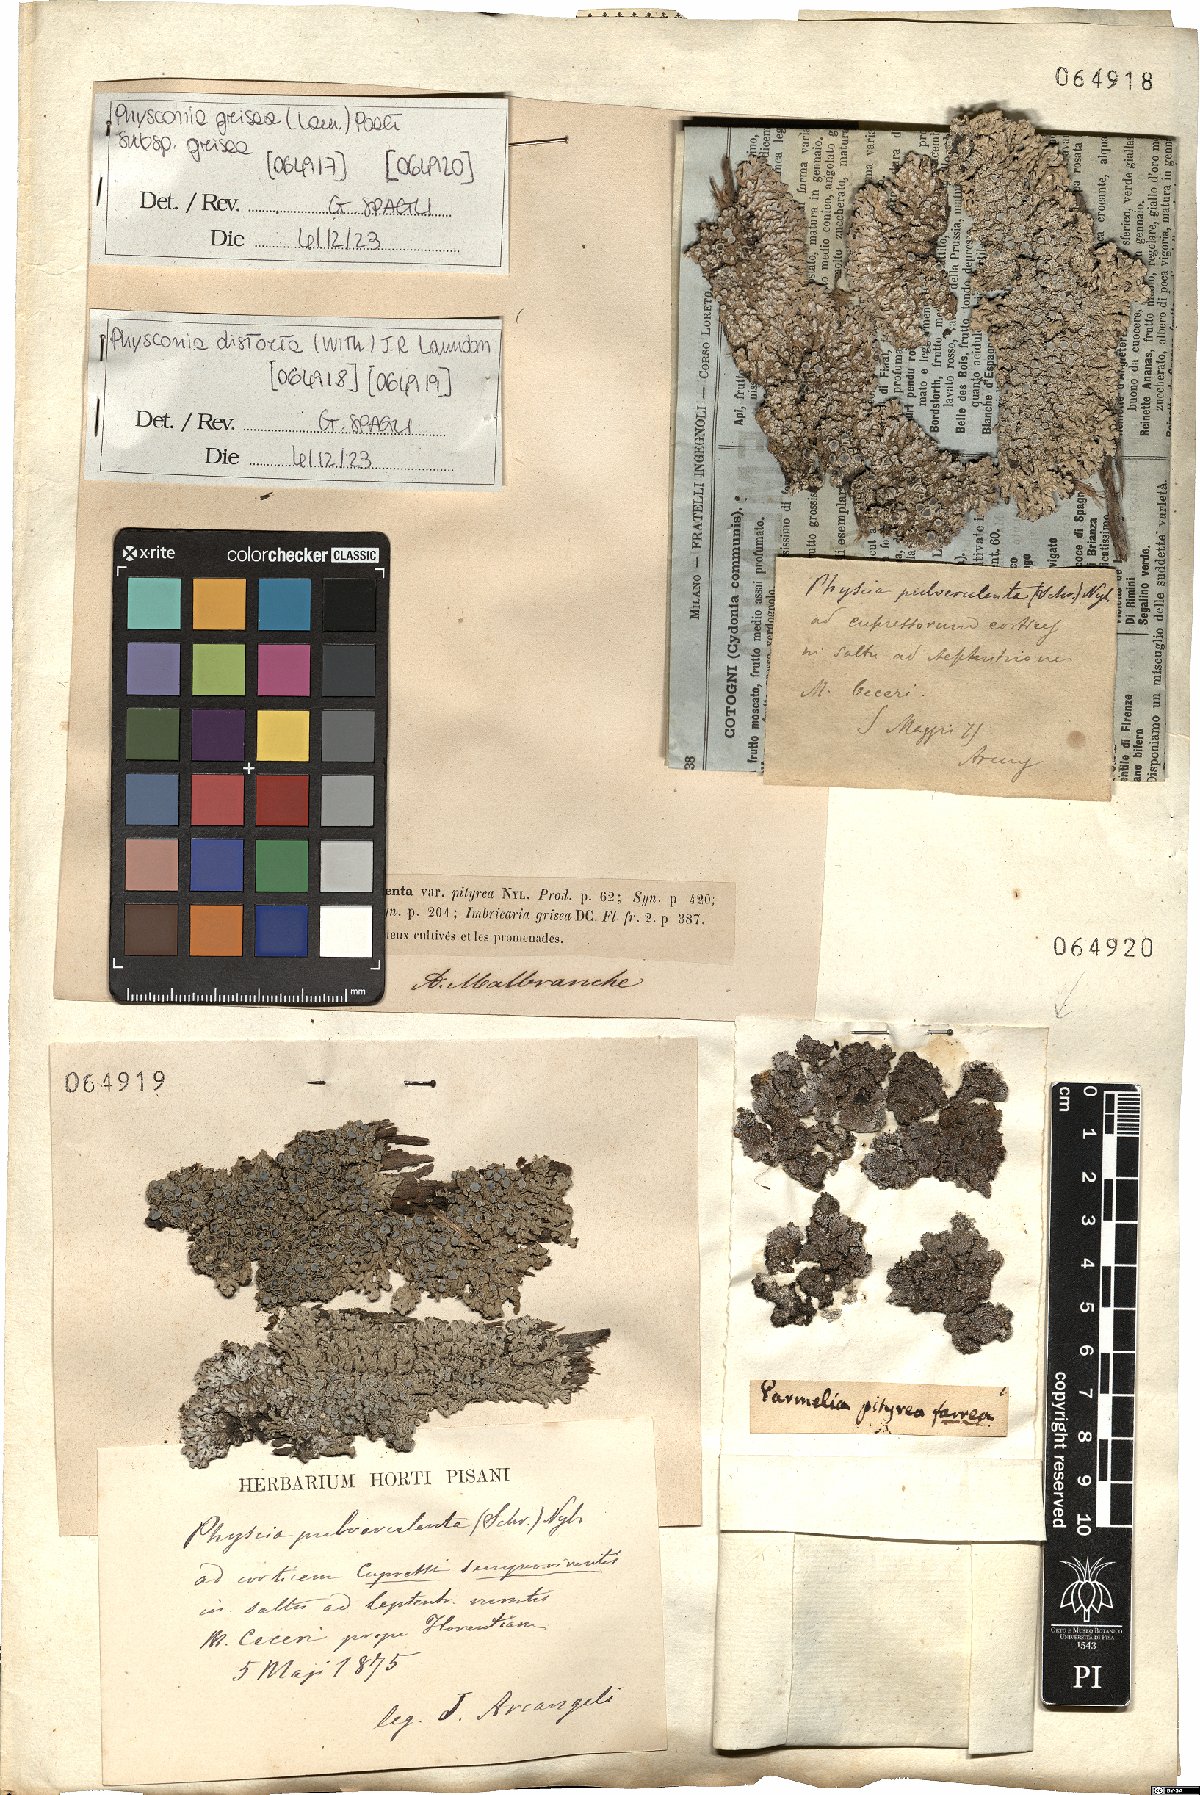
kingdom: Fungi
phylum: Ascomycota
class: Lecanoromycetes
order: Caliciales
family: Physciaceae
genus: Physconia
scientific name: Physconia distorta
